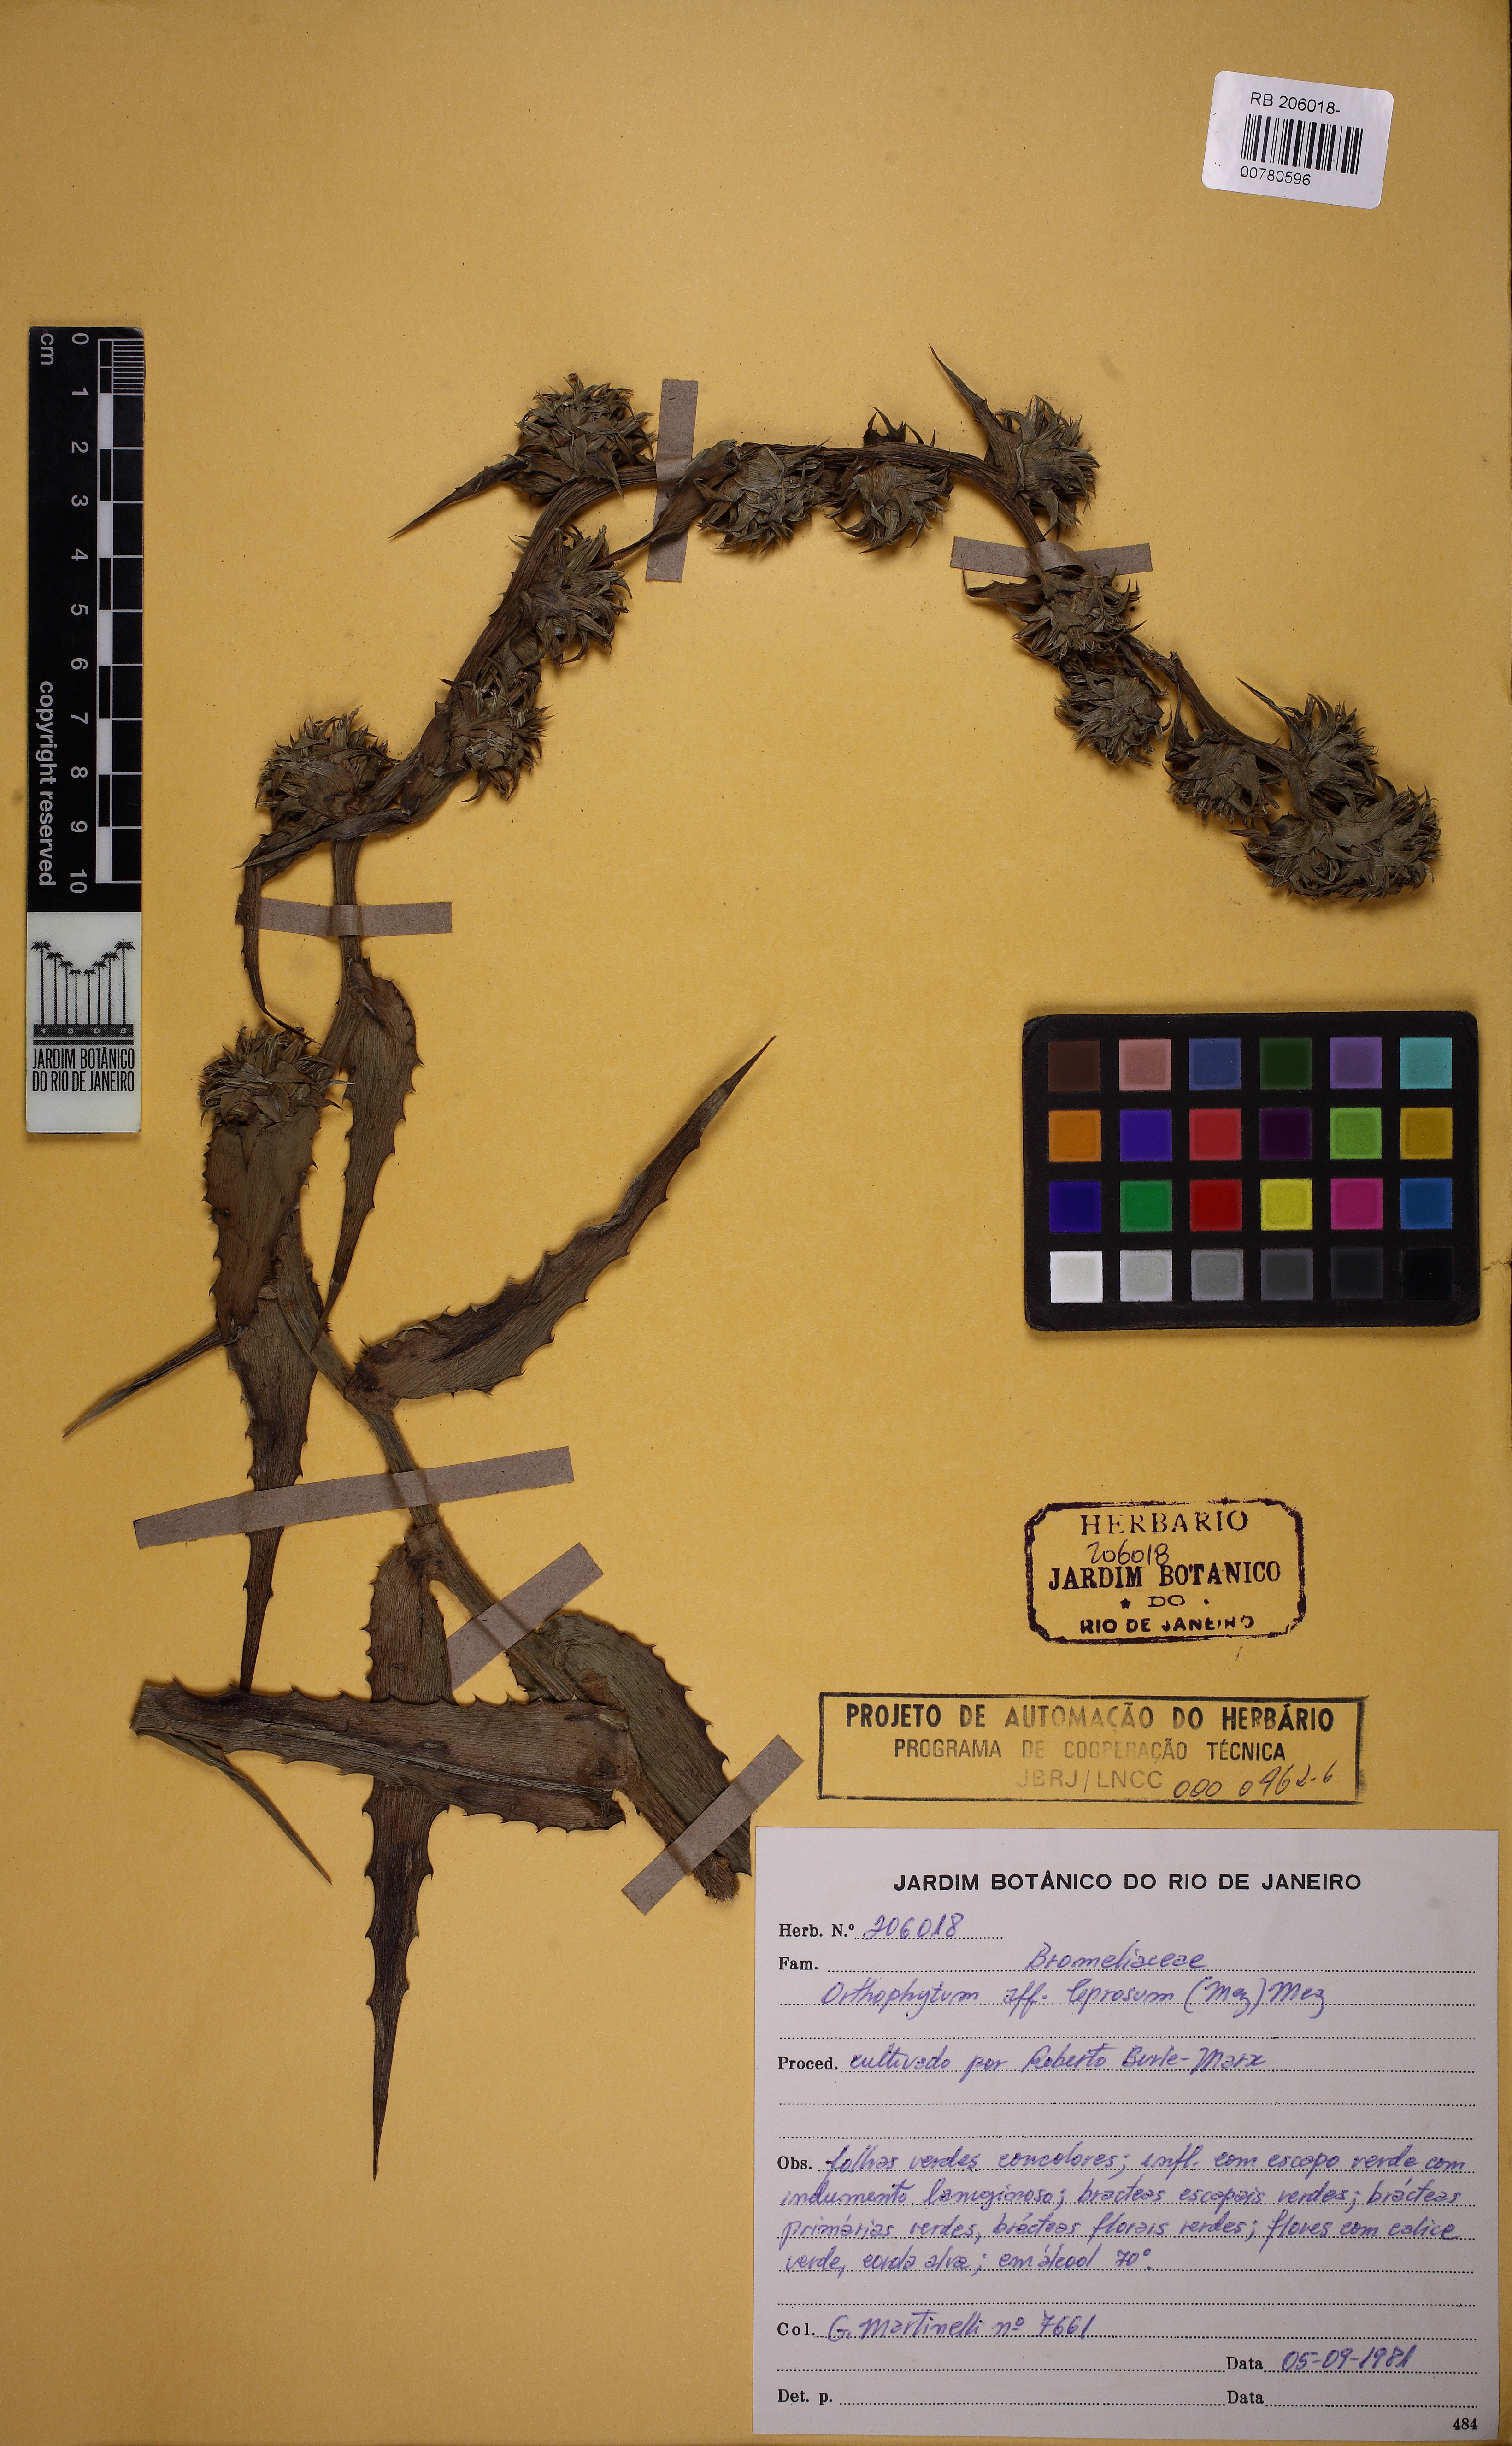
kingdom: Plantae
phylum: Tracheophyta
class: Liliopsida
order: Poales
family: Bromeliaceae
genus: Orthophytum
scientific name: Orthophytum leprosum
